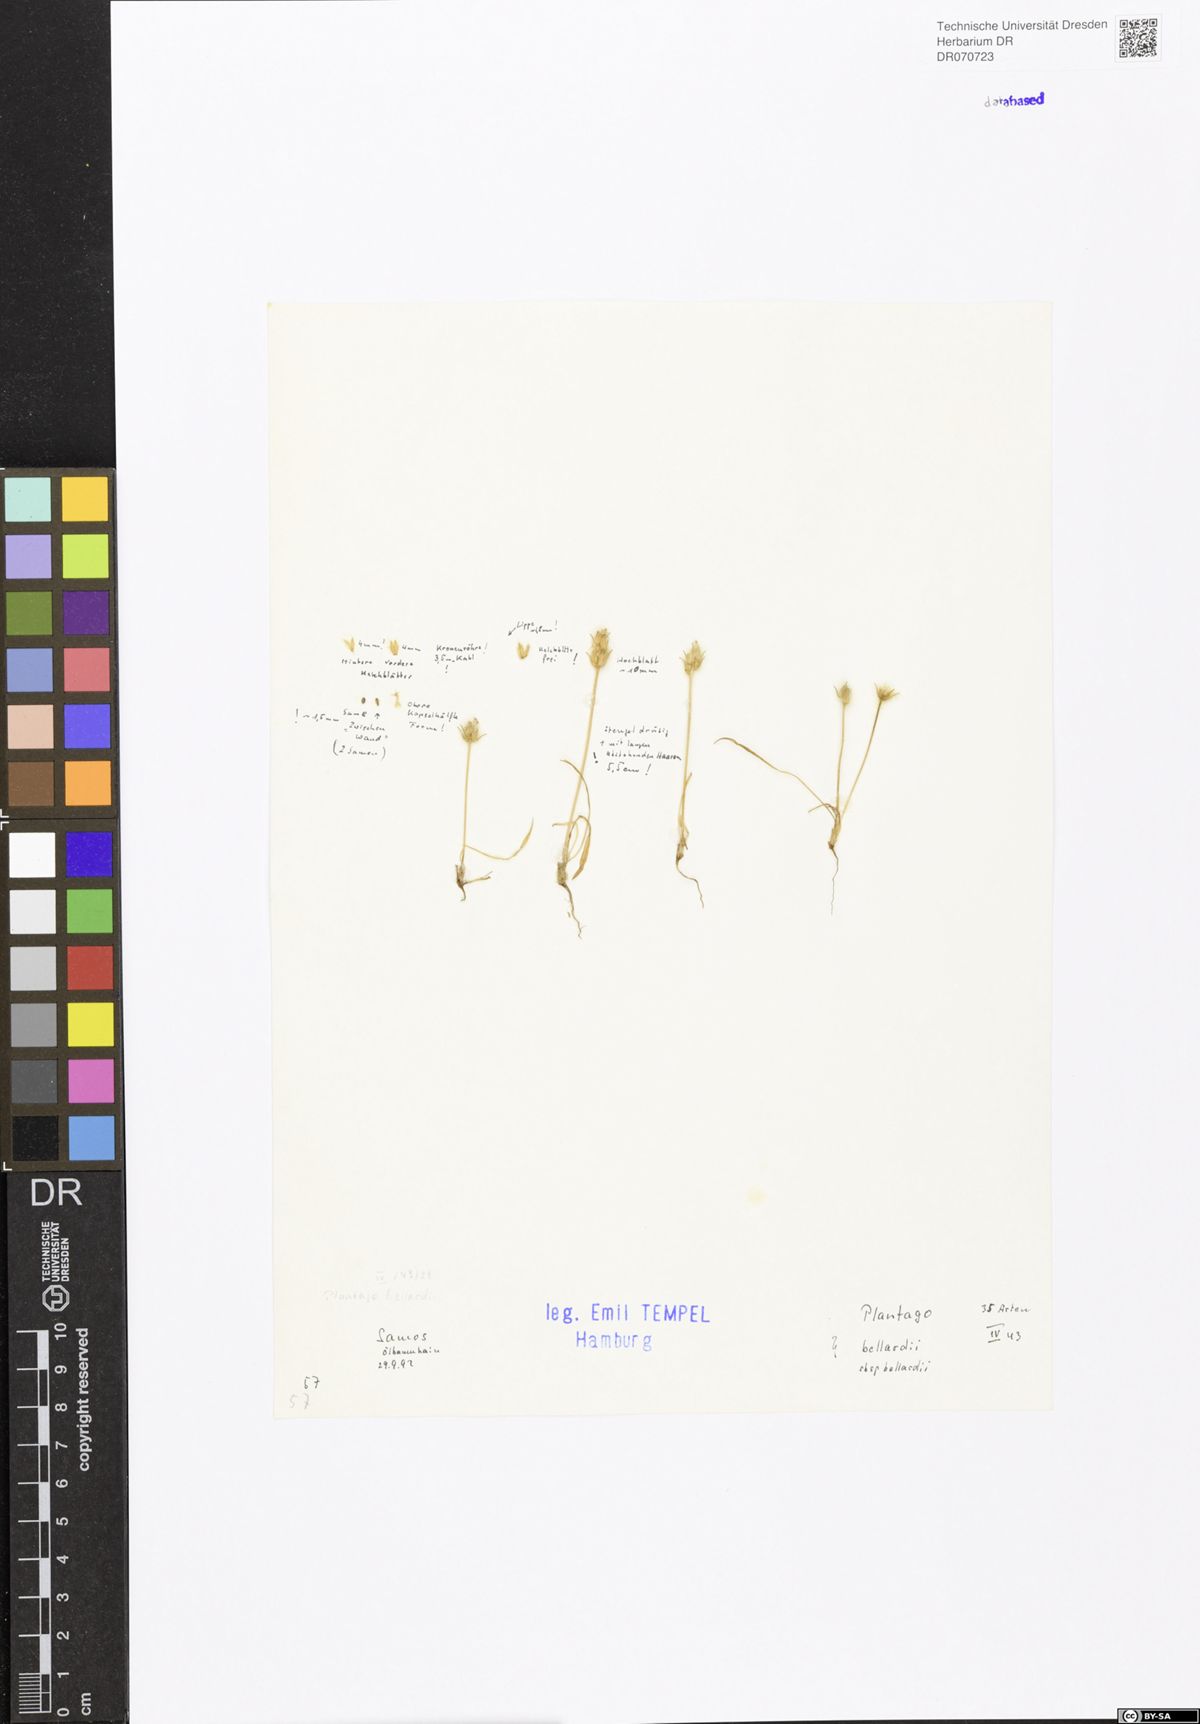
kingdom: Plantae
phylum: Tracheophyta
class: Magnoliopsida
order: Lamiales
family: Plantaginaceae
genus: Plantago
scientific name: Plantago bellardii
